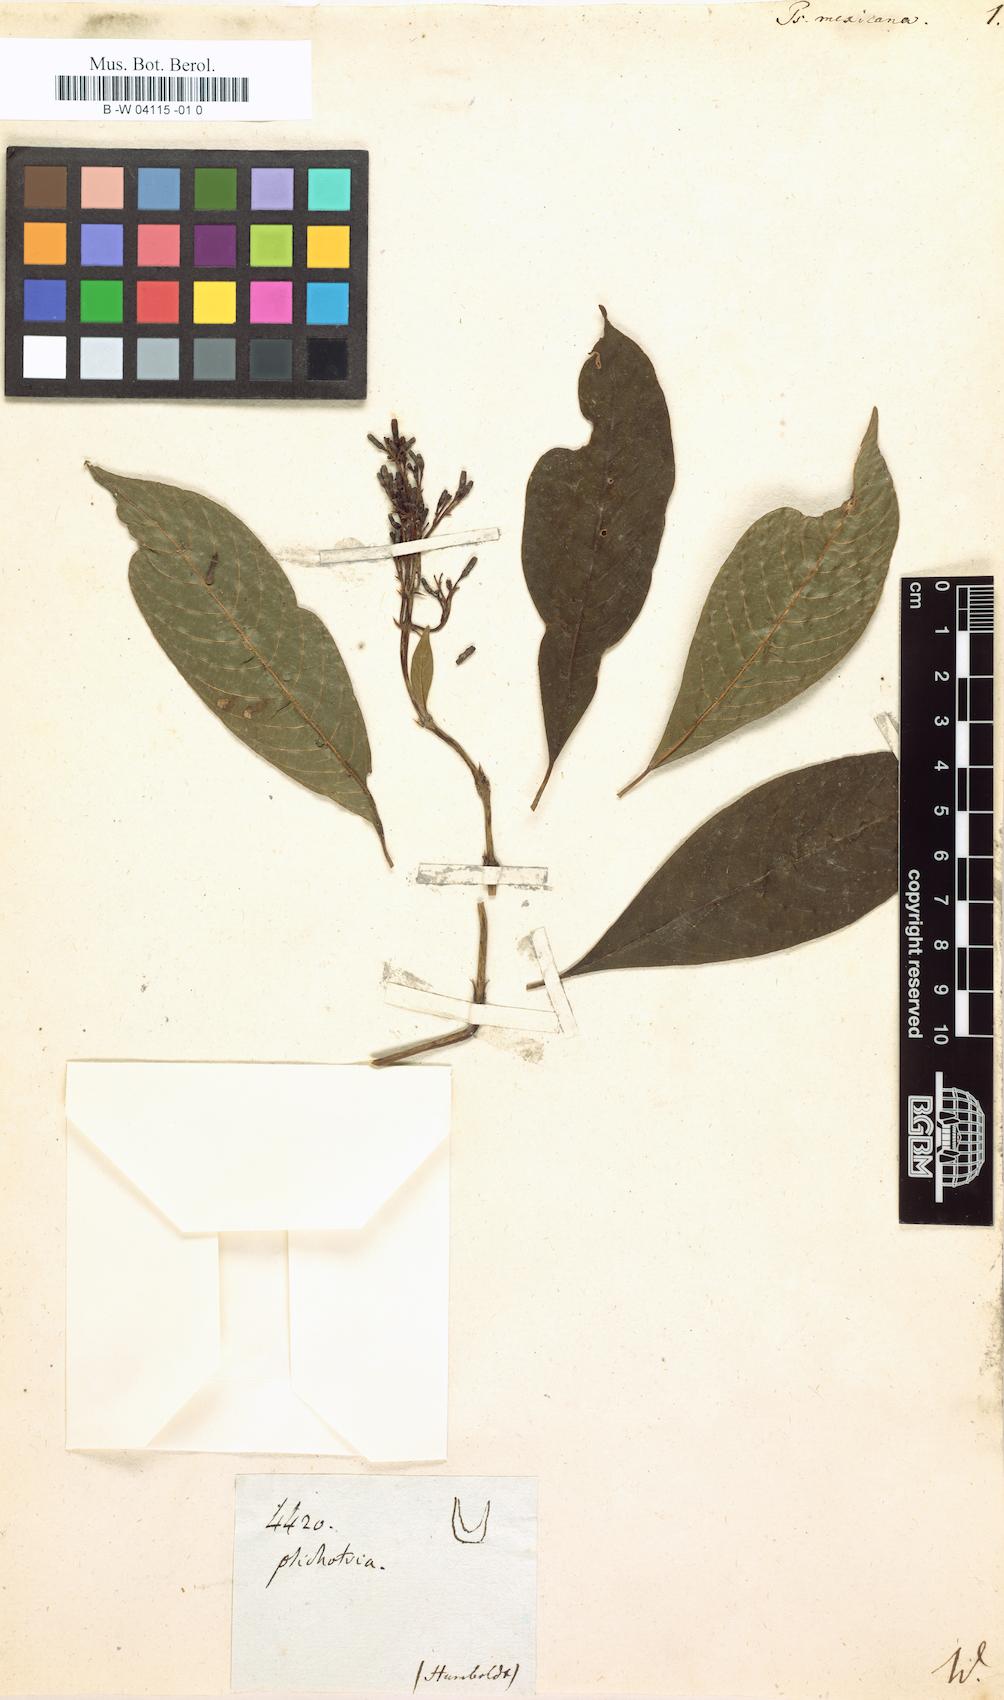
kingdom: Plantae
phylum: Tracheophyta
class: Magnoliopsida
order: Gentianales
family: Rubiaceae
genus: Palicourea
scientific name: Palicourea padifolia
